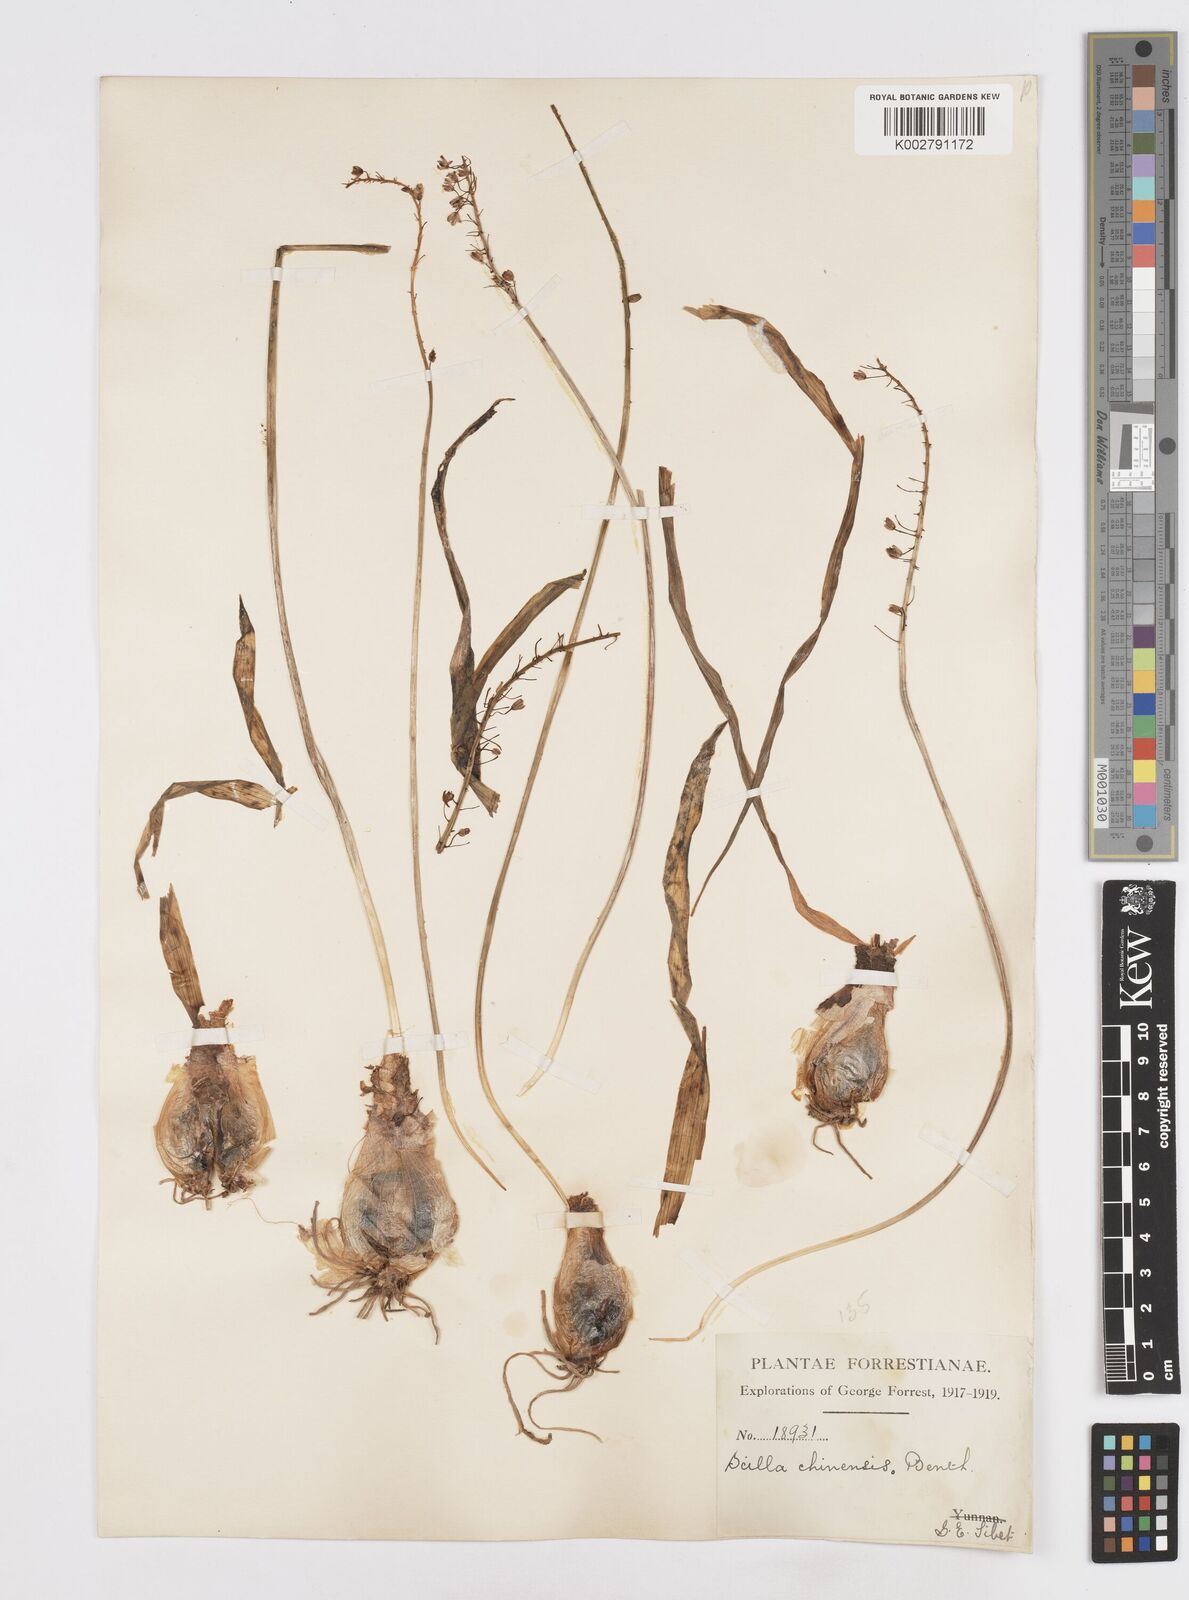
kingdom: Plantae
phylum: Tracheophyta
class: Liliopsida
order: Asparagales
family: Asparagaceae
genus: Barnardia
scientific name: Barnardia japonica
